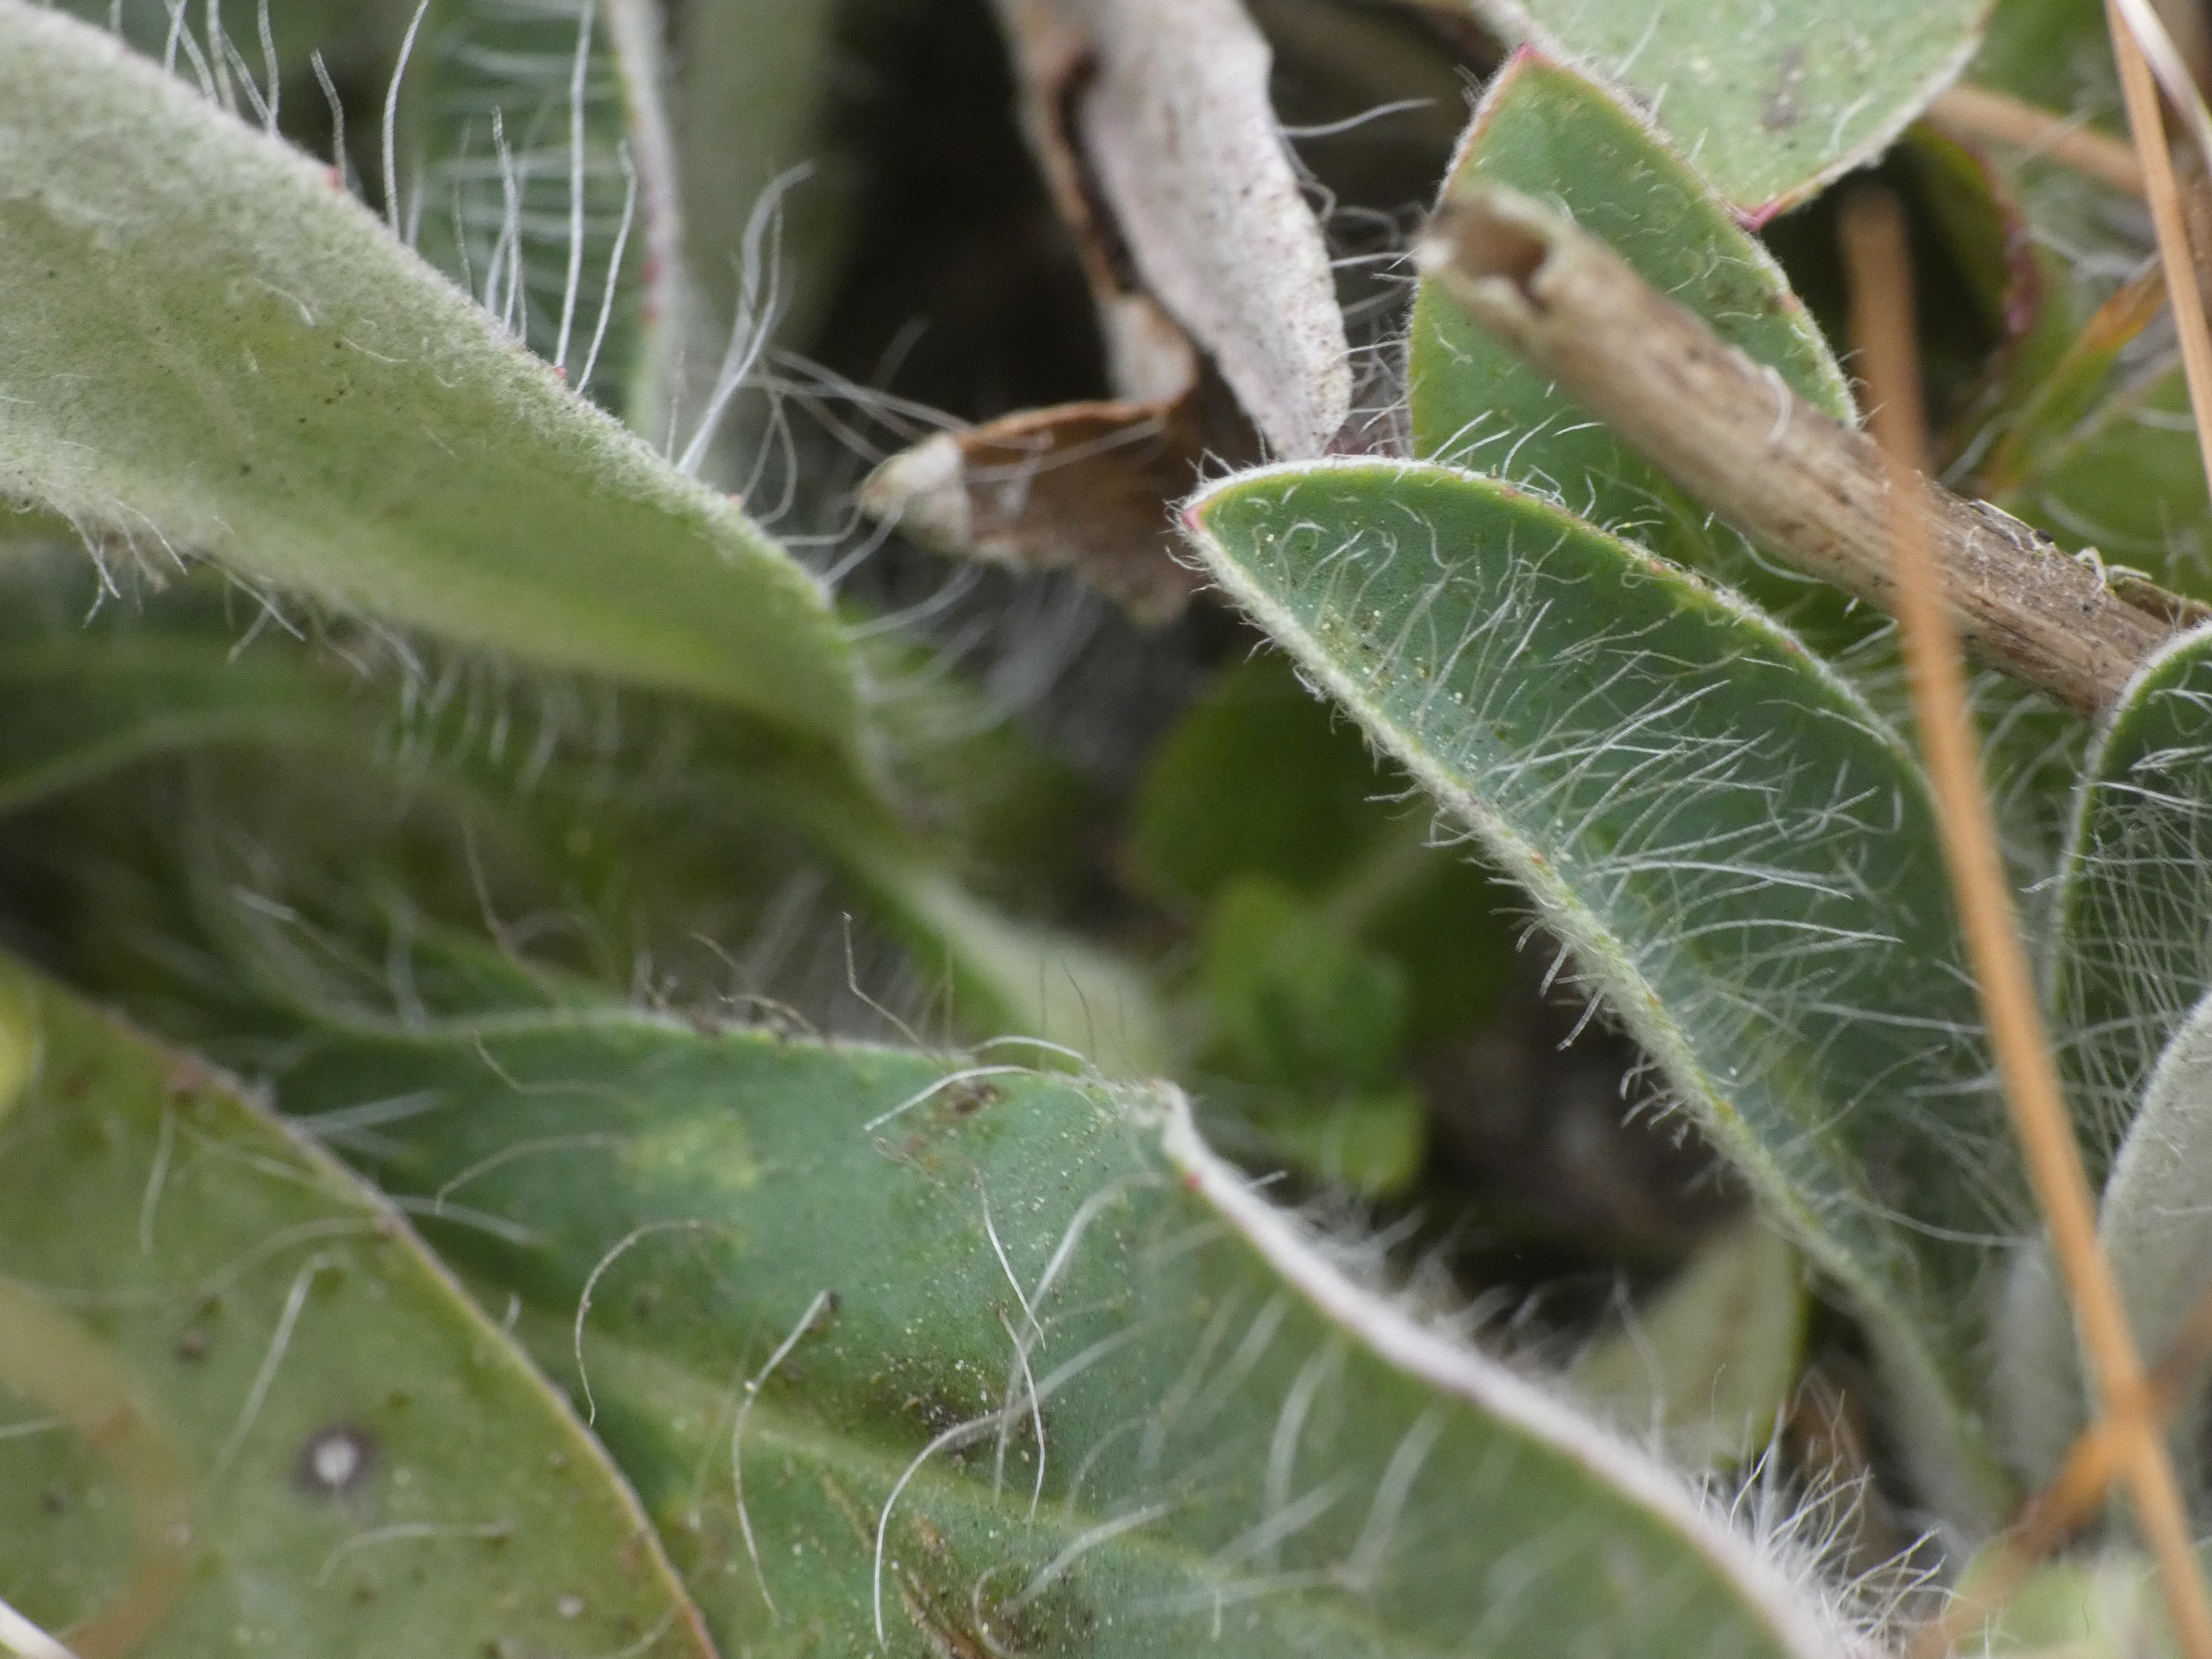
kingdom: Plantae
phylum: Tracheophyta
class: Magnoliopsida
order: Asterales
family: Asteraceae
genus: Pilosella
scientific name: Pilosella officinarum
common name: Håret høgeurt
